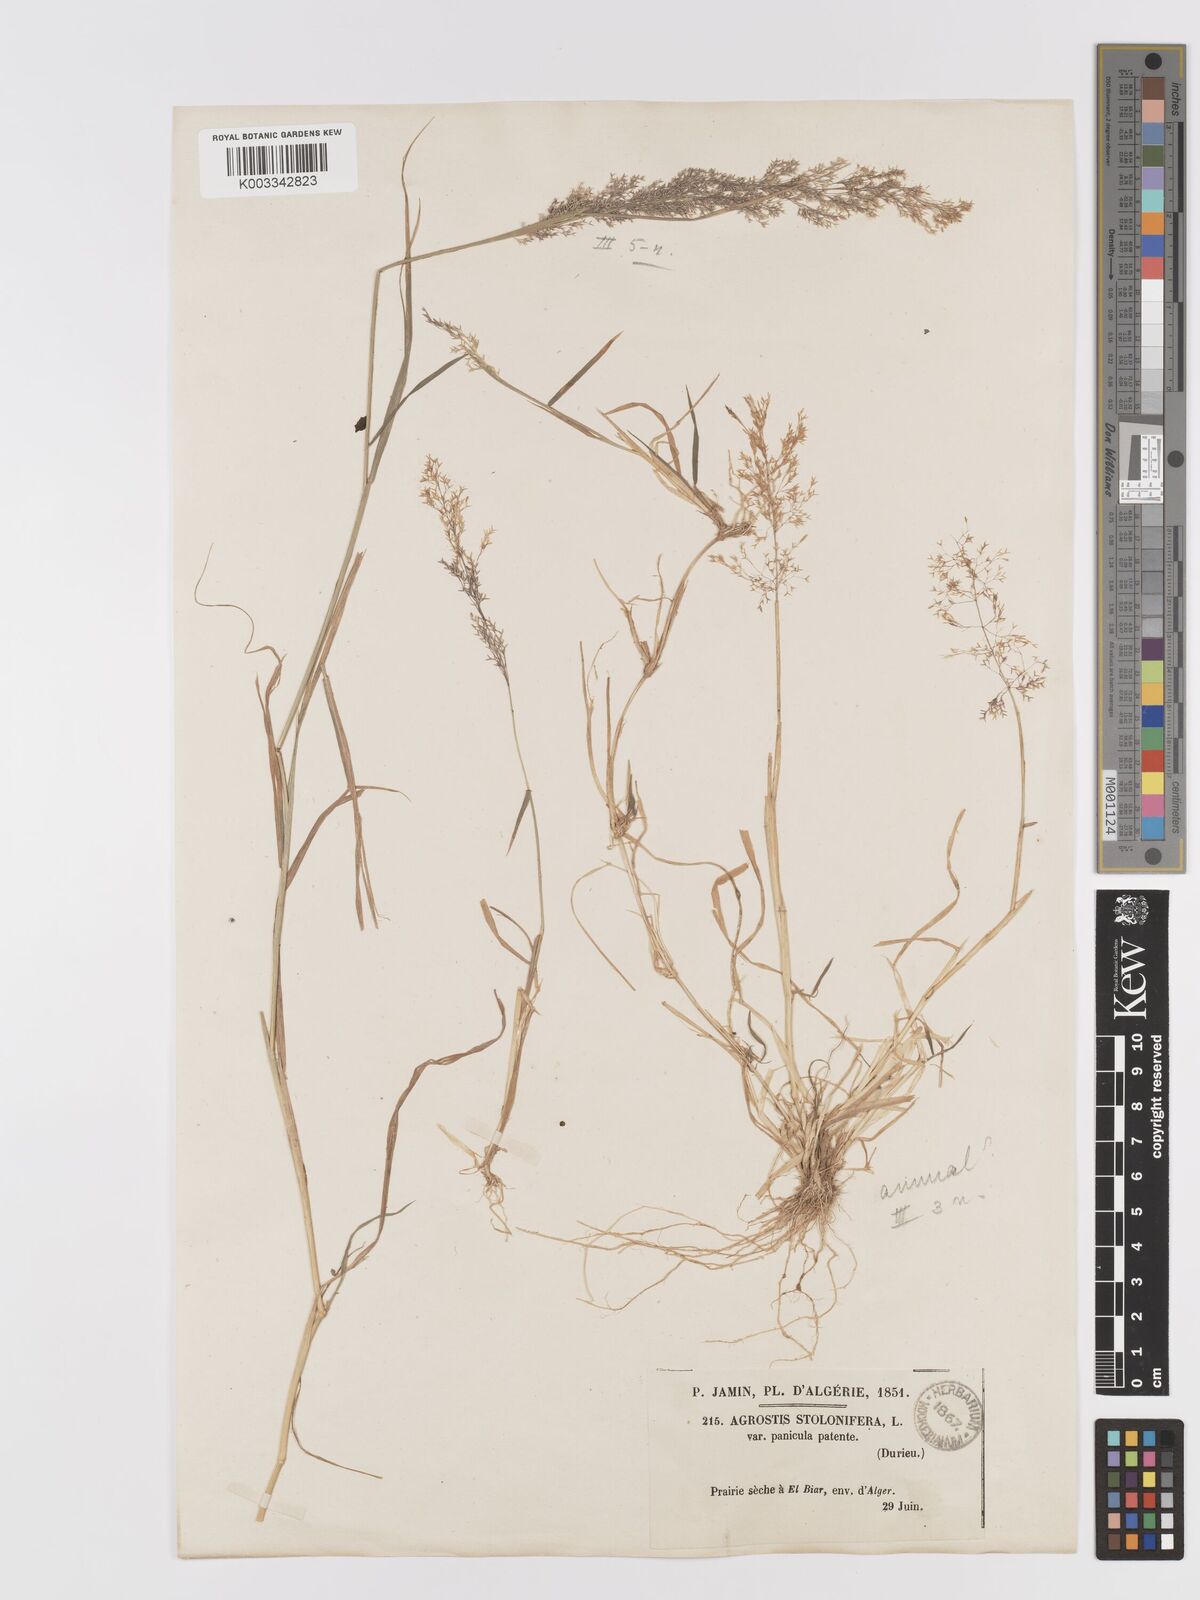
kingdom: Plantae
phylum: Tracheophyta
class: Liliopsida
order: Poales
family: Poaceae
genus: Agrostis
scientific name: Agrostis reuteri
